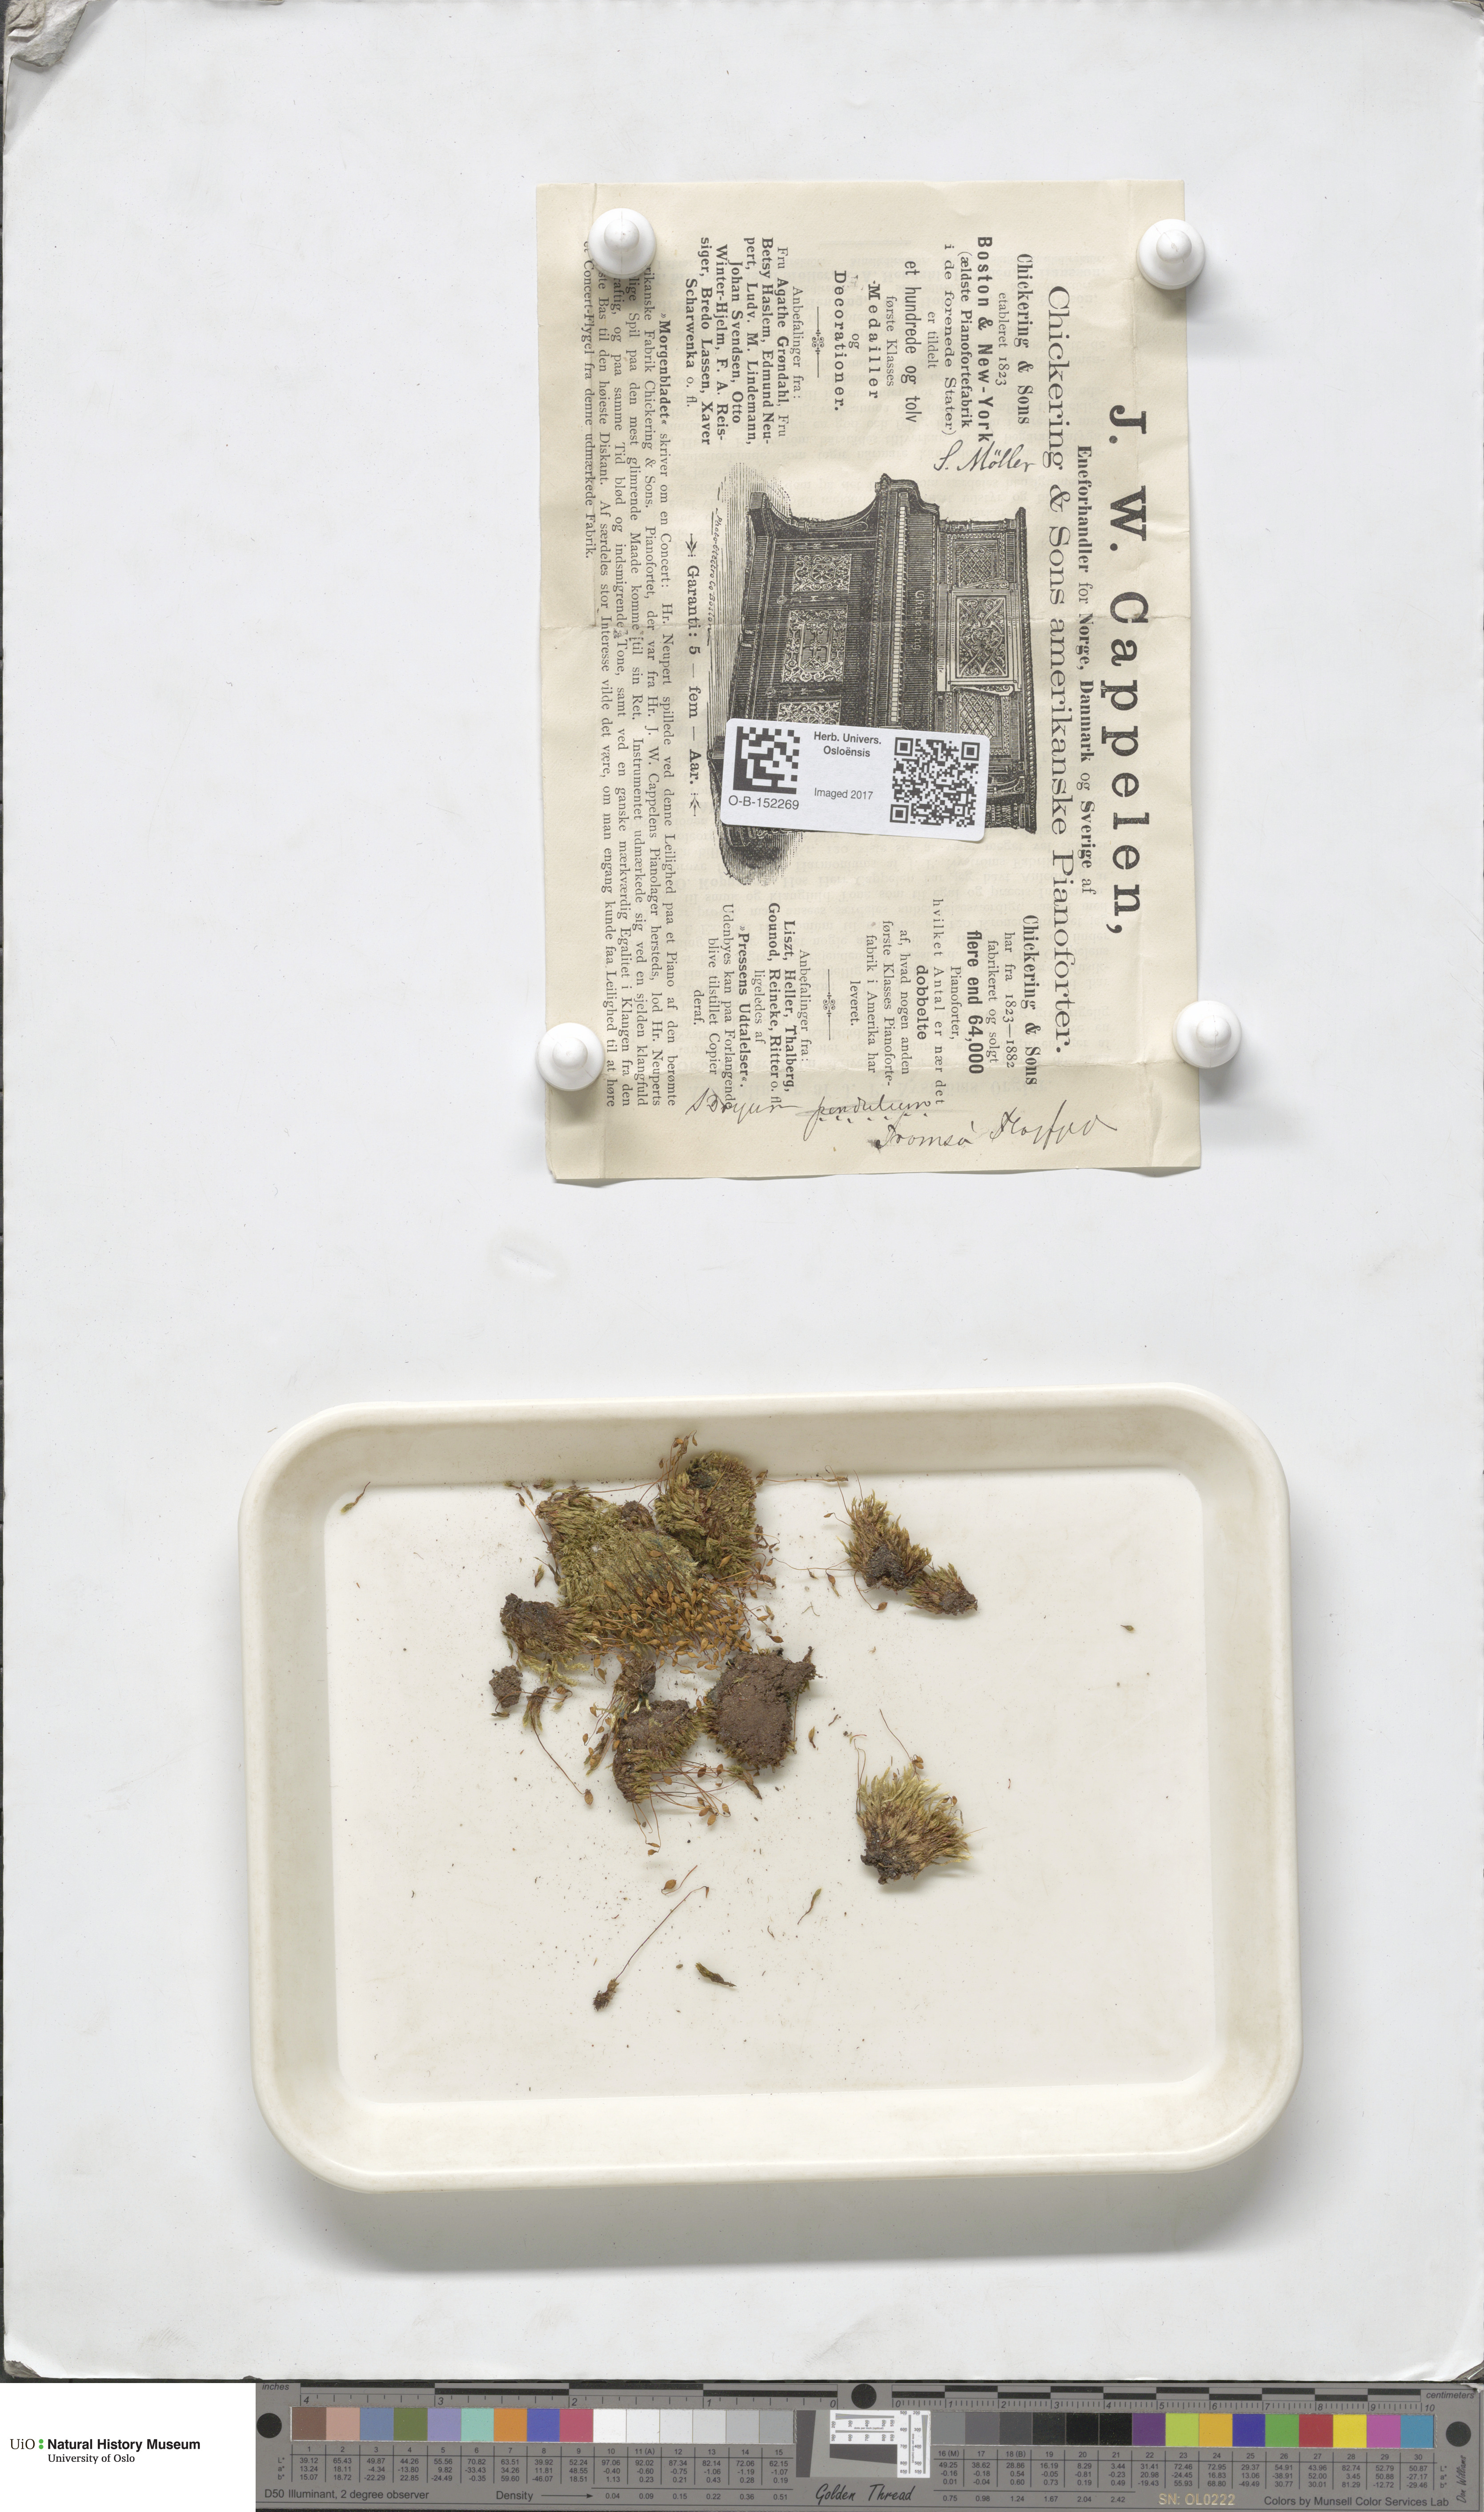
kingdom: Plantae
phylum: Bryophyta
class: Bryopsida
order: Bryales
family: Bryaceae
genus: Ptychostomum
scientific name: Ptychostomum compactum
